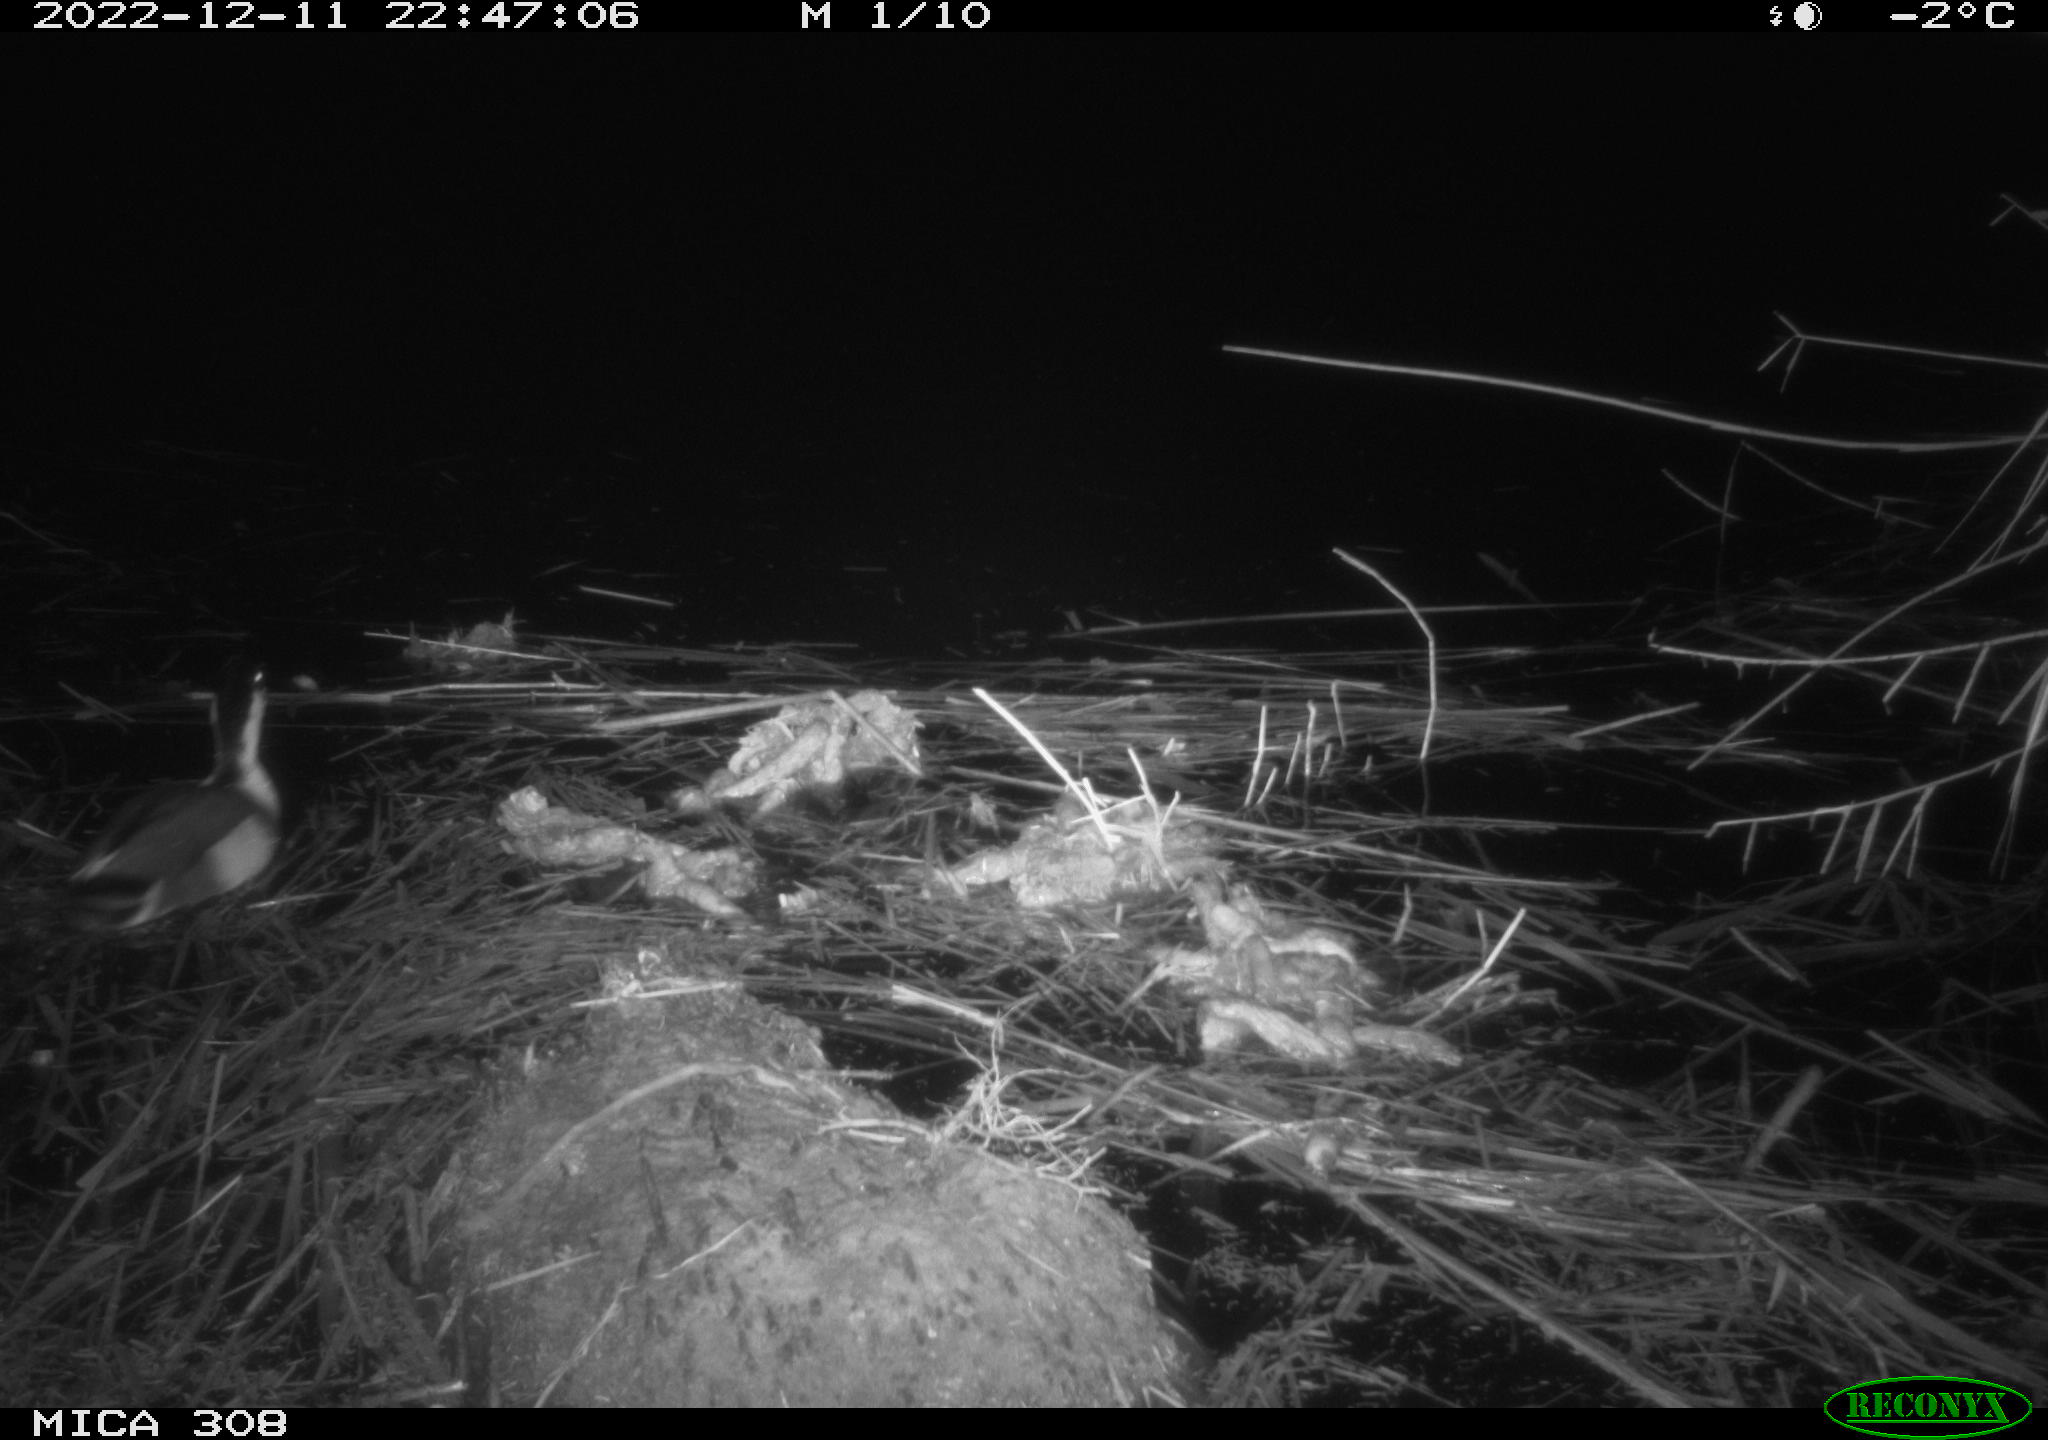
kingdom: Animalia
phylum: Chordata
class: Aves
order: Anseriformes
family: Anatidae
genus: Anas
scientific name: Anas
